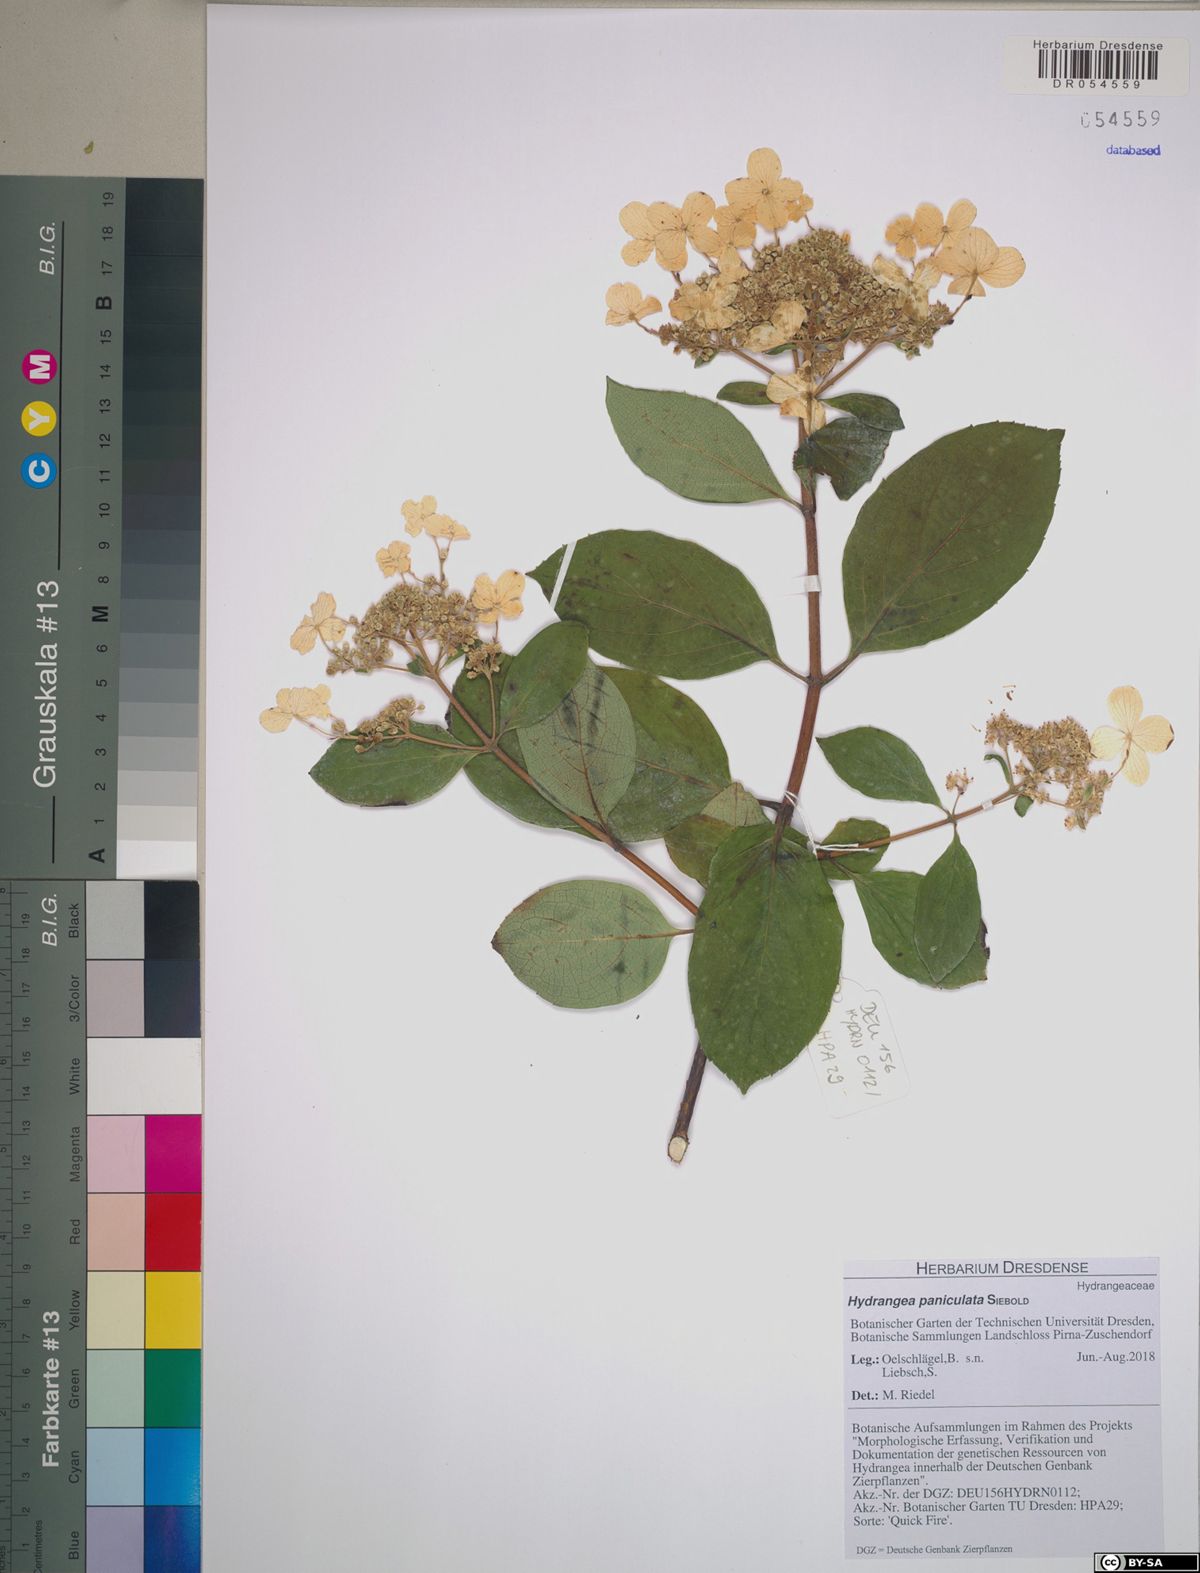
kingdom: Plantae
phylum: Tracheophyta
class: Magnoliopsida
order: Cornales
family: Hydrangeaceae
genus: Hydrangea
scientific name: Hydrangea paniculata
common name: Panicled hydrangea
